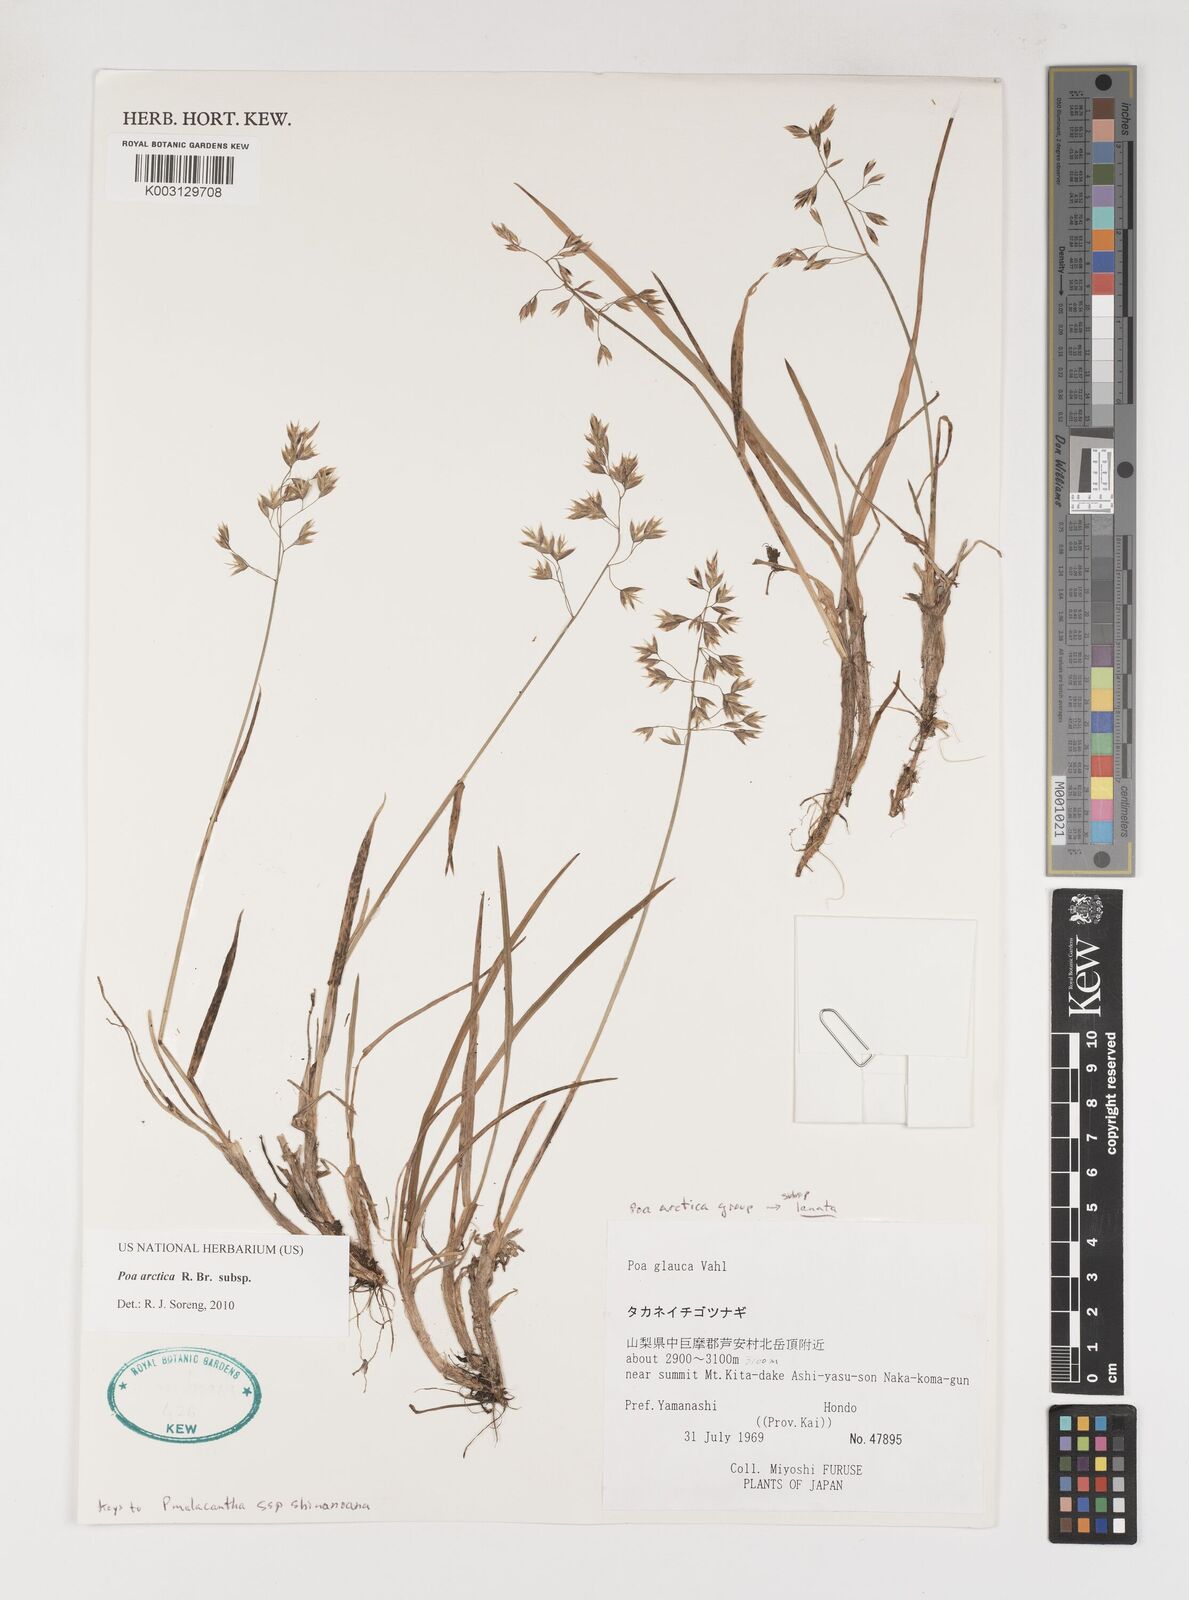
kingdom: Plantae
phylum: Tracheophyta
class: Liliopsida
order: Poales
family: Poaceae
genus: Poa
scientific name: Poa arctica
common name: Arctic bluegrass
